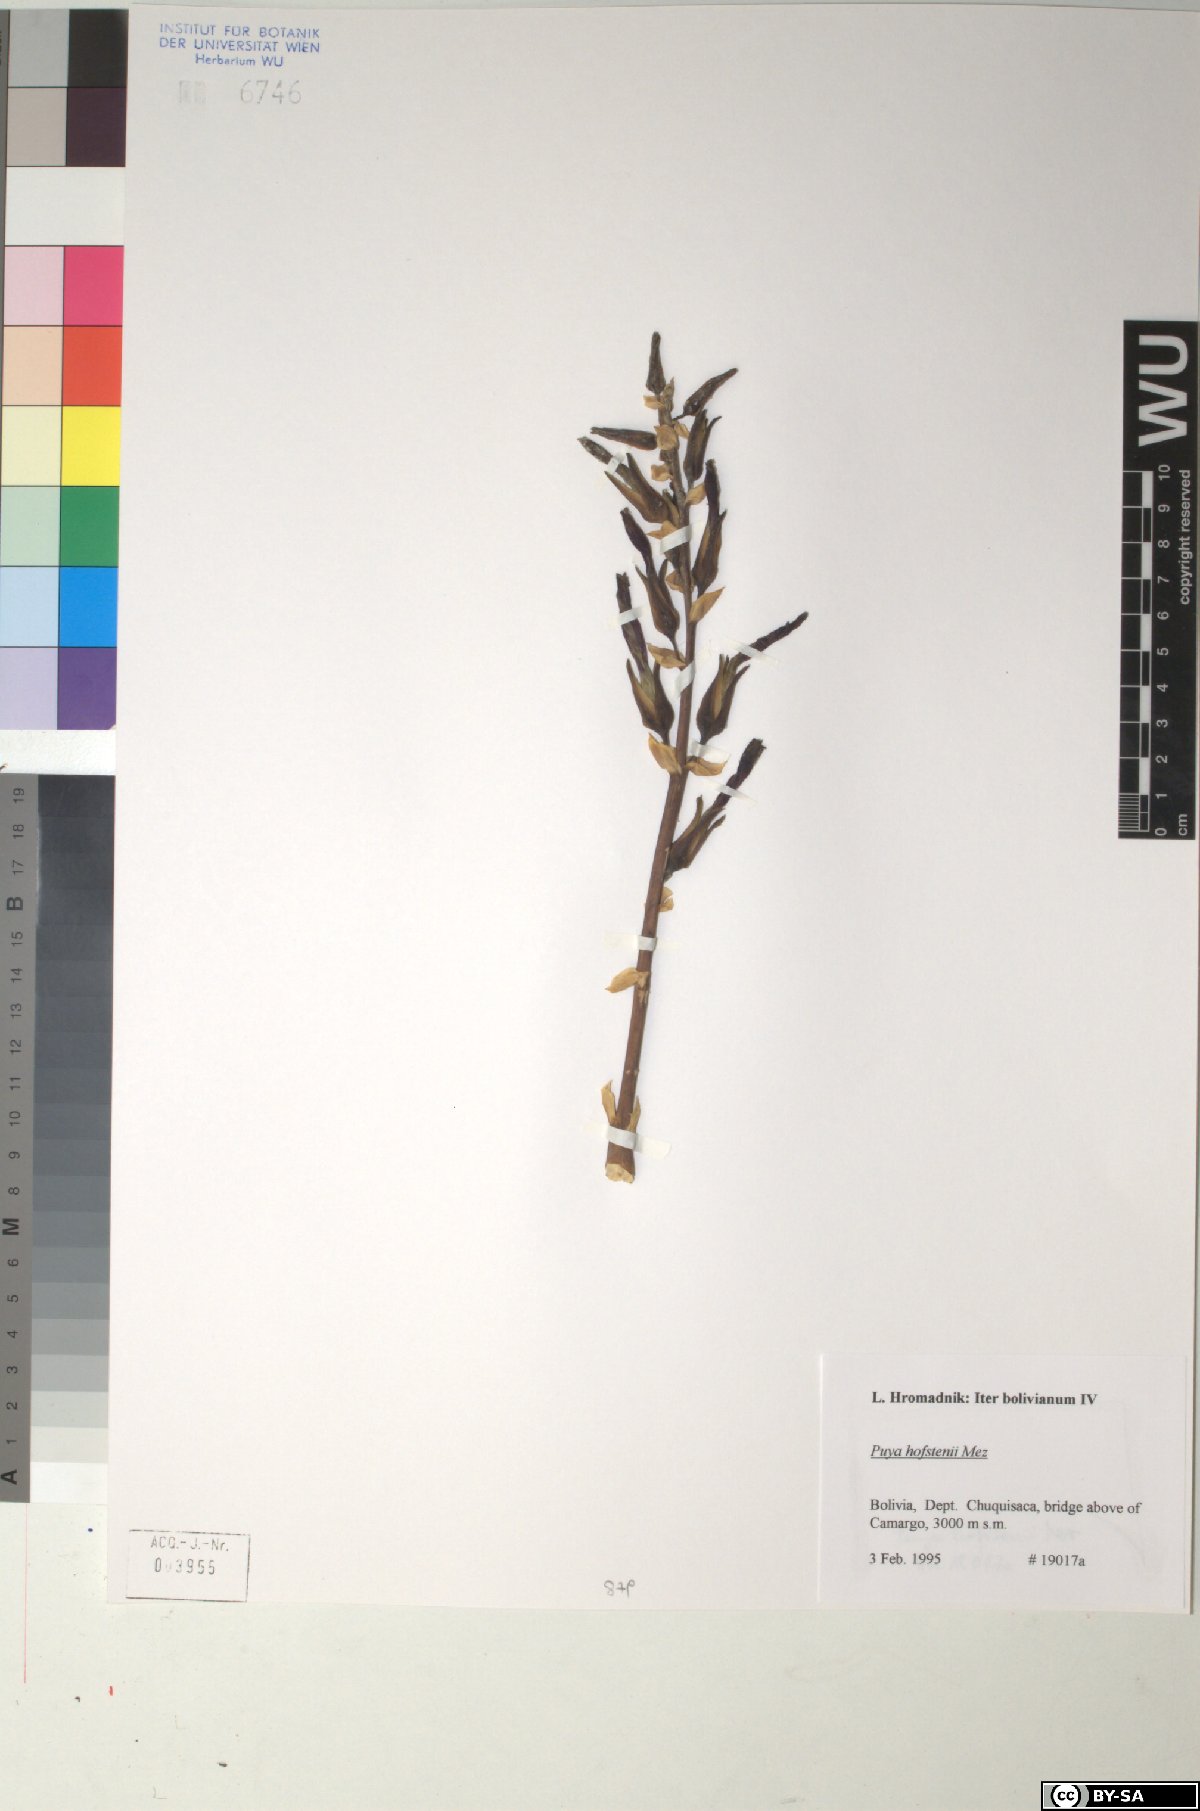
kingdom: Plantae
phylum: Tracheophyta
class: Liliopsida
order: Poales
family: Bromeliaceae
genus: Puya
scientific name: Puya hofstenii
